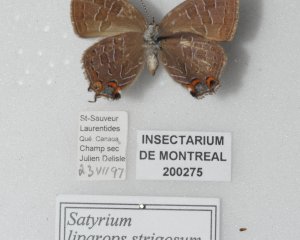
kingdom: Animalia
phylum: Arthropoda
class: Insecta
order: Lepidoptera
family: Lycaenidae
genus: Satyrium
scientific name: Satyrium liparops
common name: Striped Hairstreak
